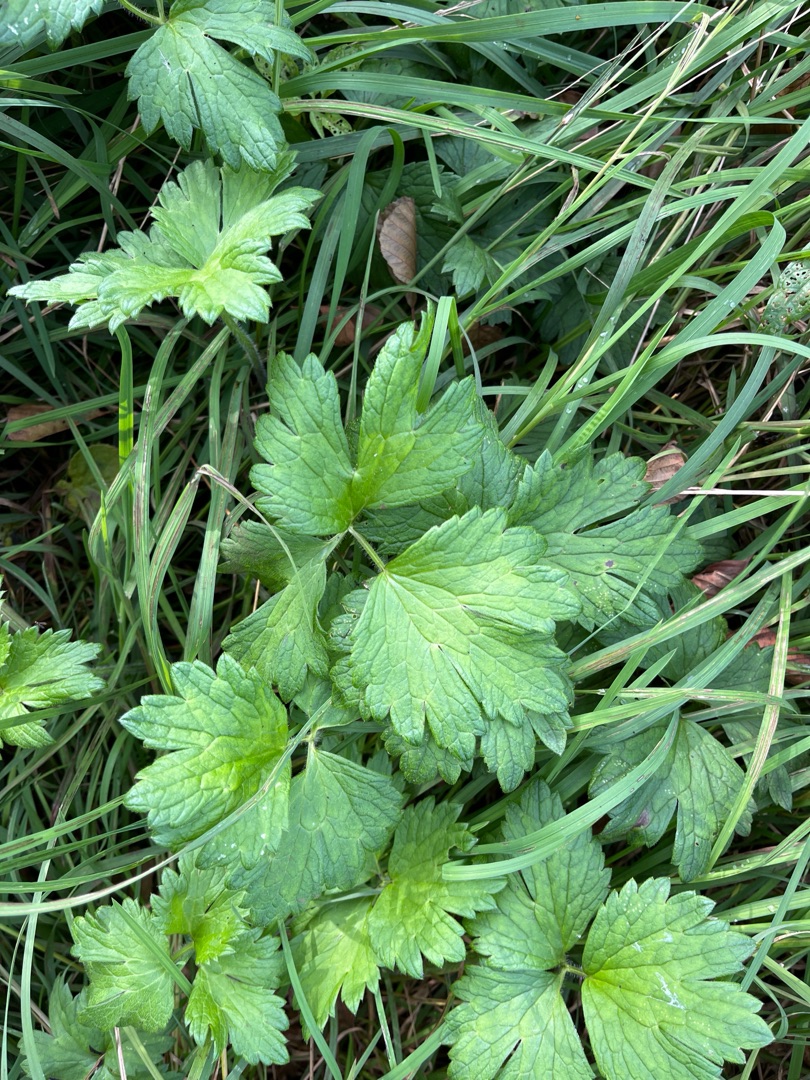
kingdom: Plantae
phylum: Tracheophyta
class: Magnoliopsida
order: Ranunculales
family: Ranunculaceae
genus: Ranunculus
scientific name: Ranunculus repens
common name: Lav ranunkel
